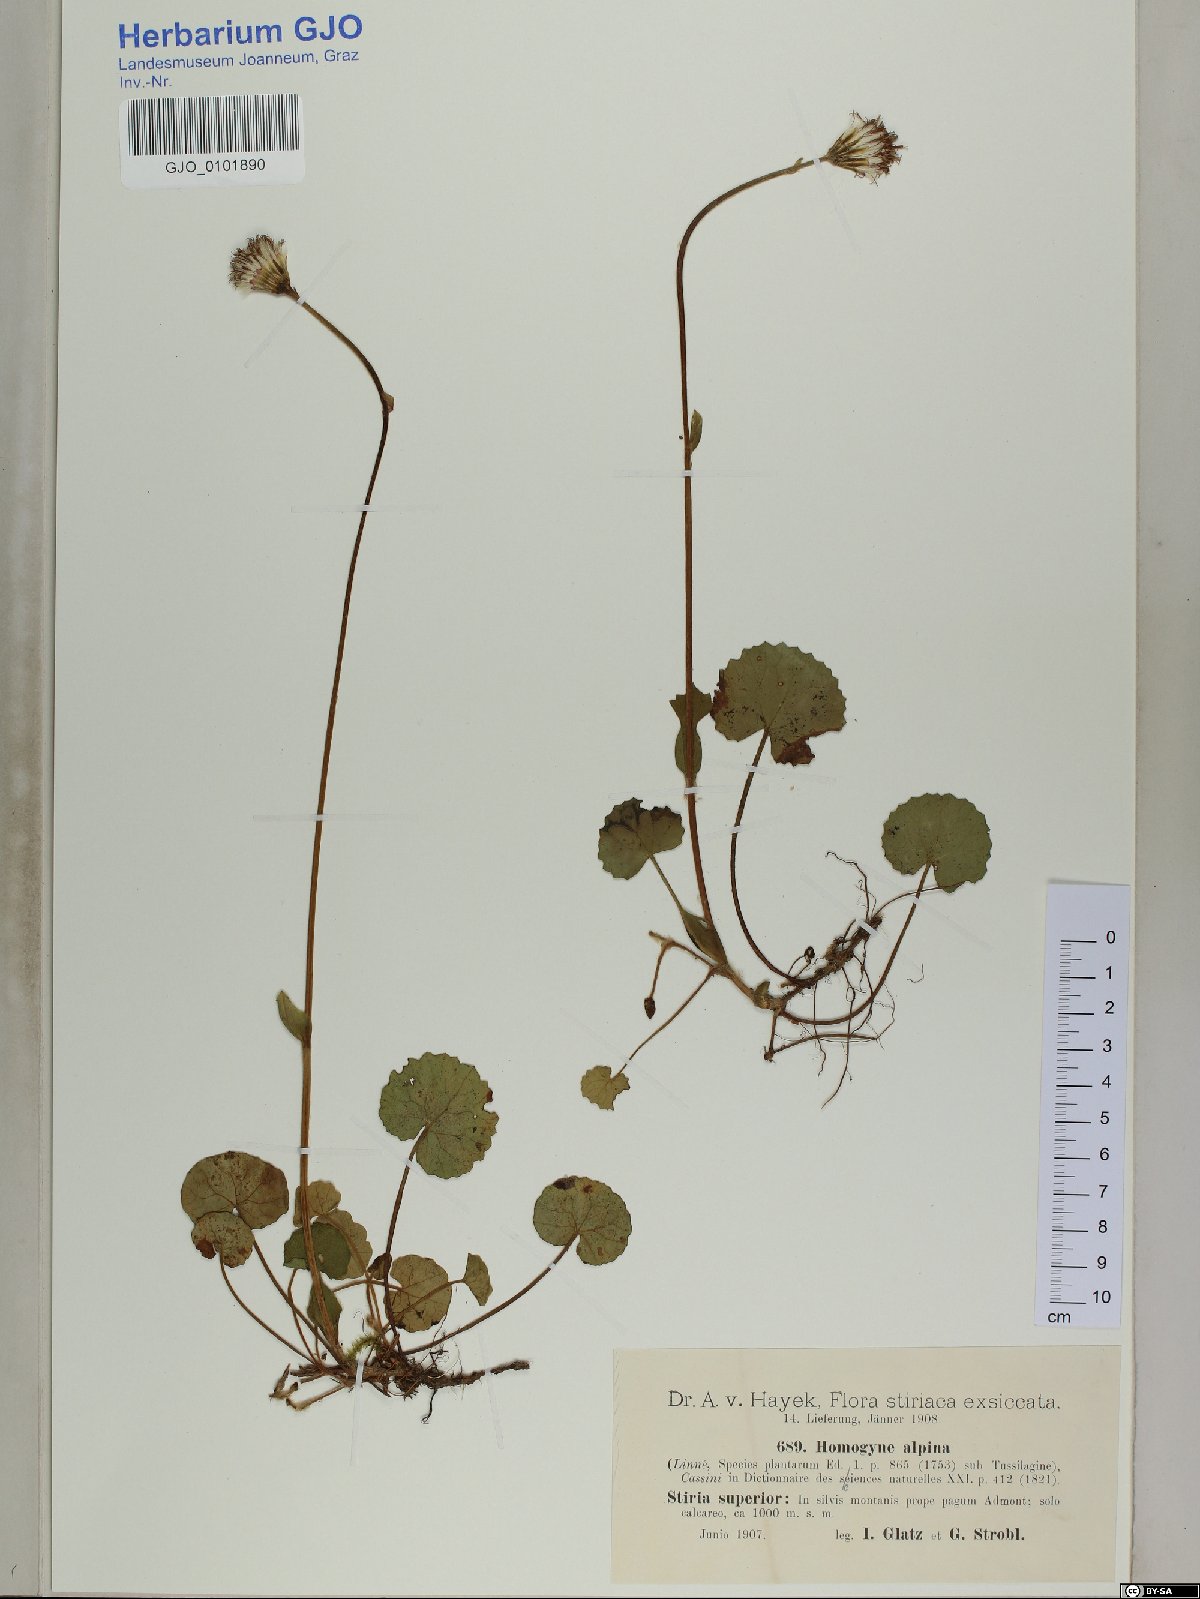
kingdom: Plantae
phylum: Tracheophyta
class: Magnoliopsida
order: Asterales
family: Asteraceae
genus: Homogyne
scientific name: Homogyne alpina
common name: Purple colt's-foot
